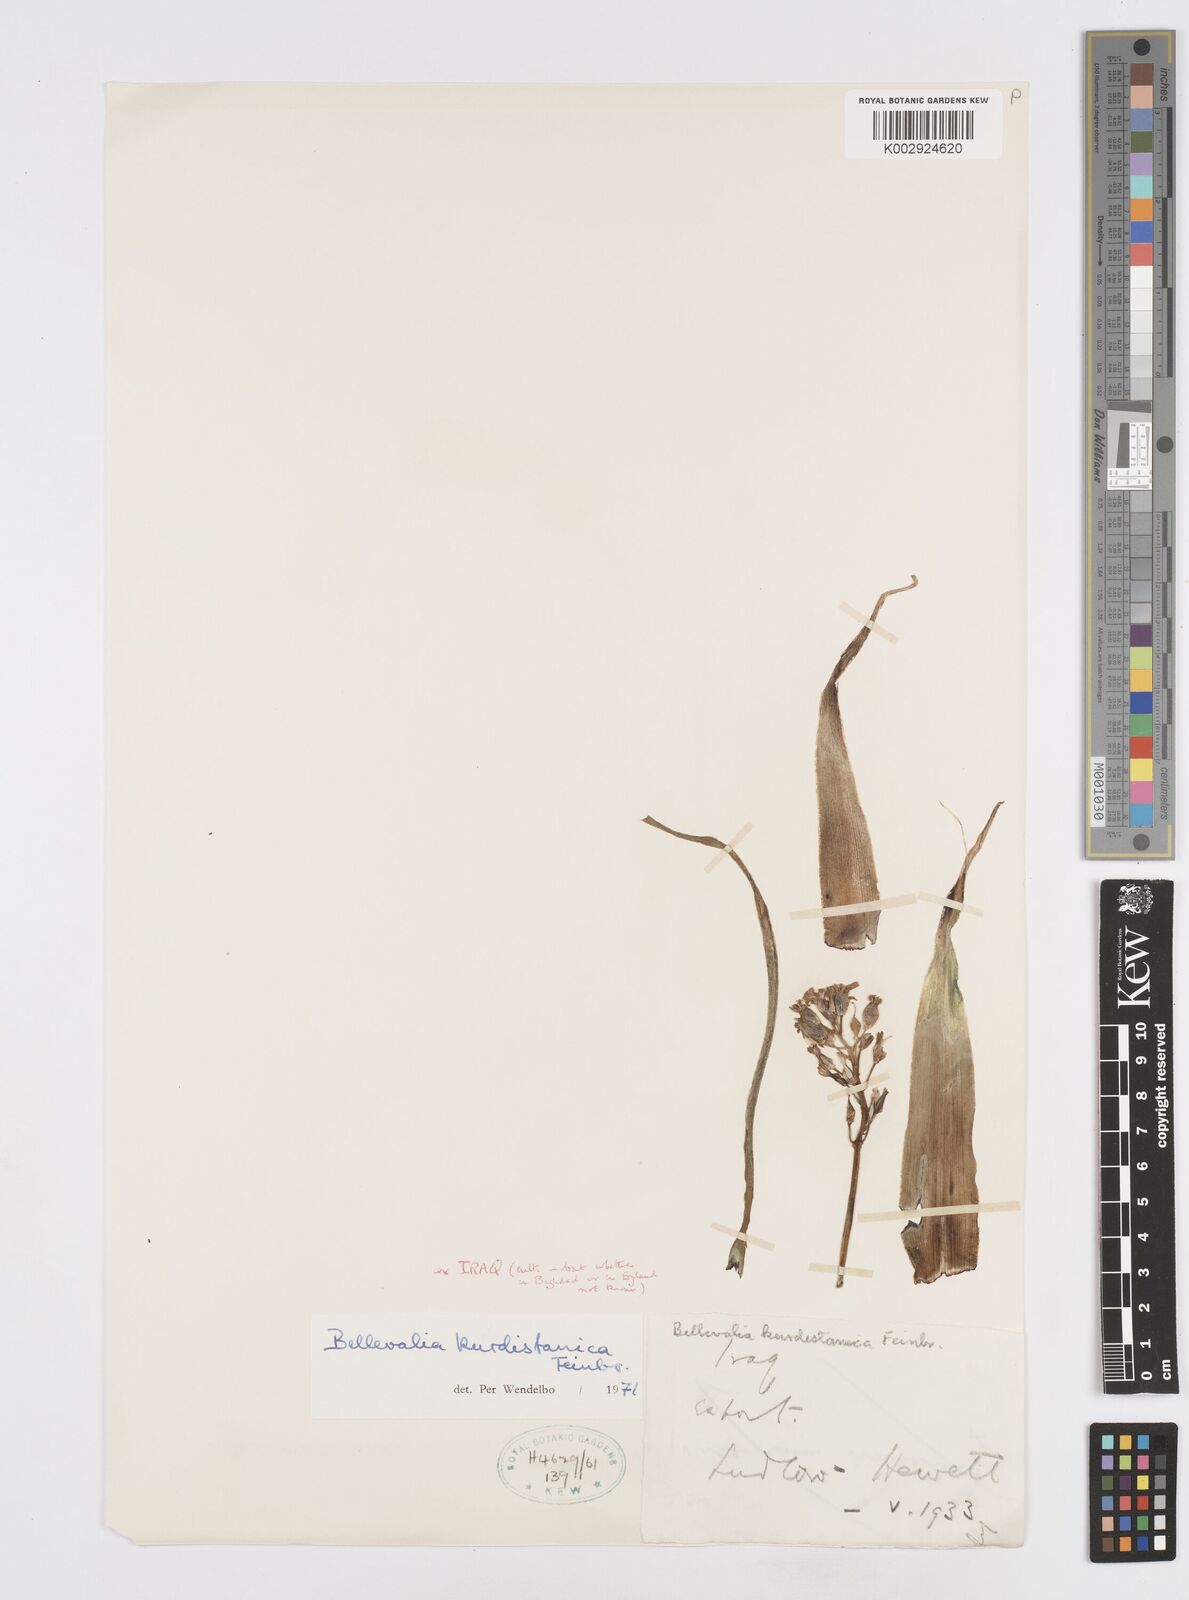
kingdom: Plantae
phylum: Tracheophyta
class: Liliopsida
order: Asparagales
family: Asparagaceae
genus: Bellevalia
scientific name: Bellevalia kurdistanica
